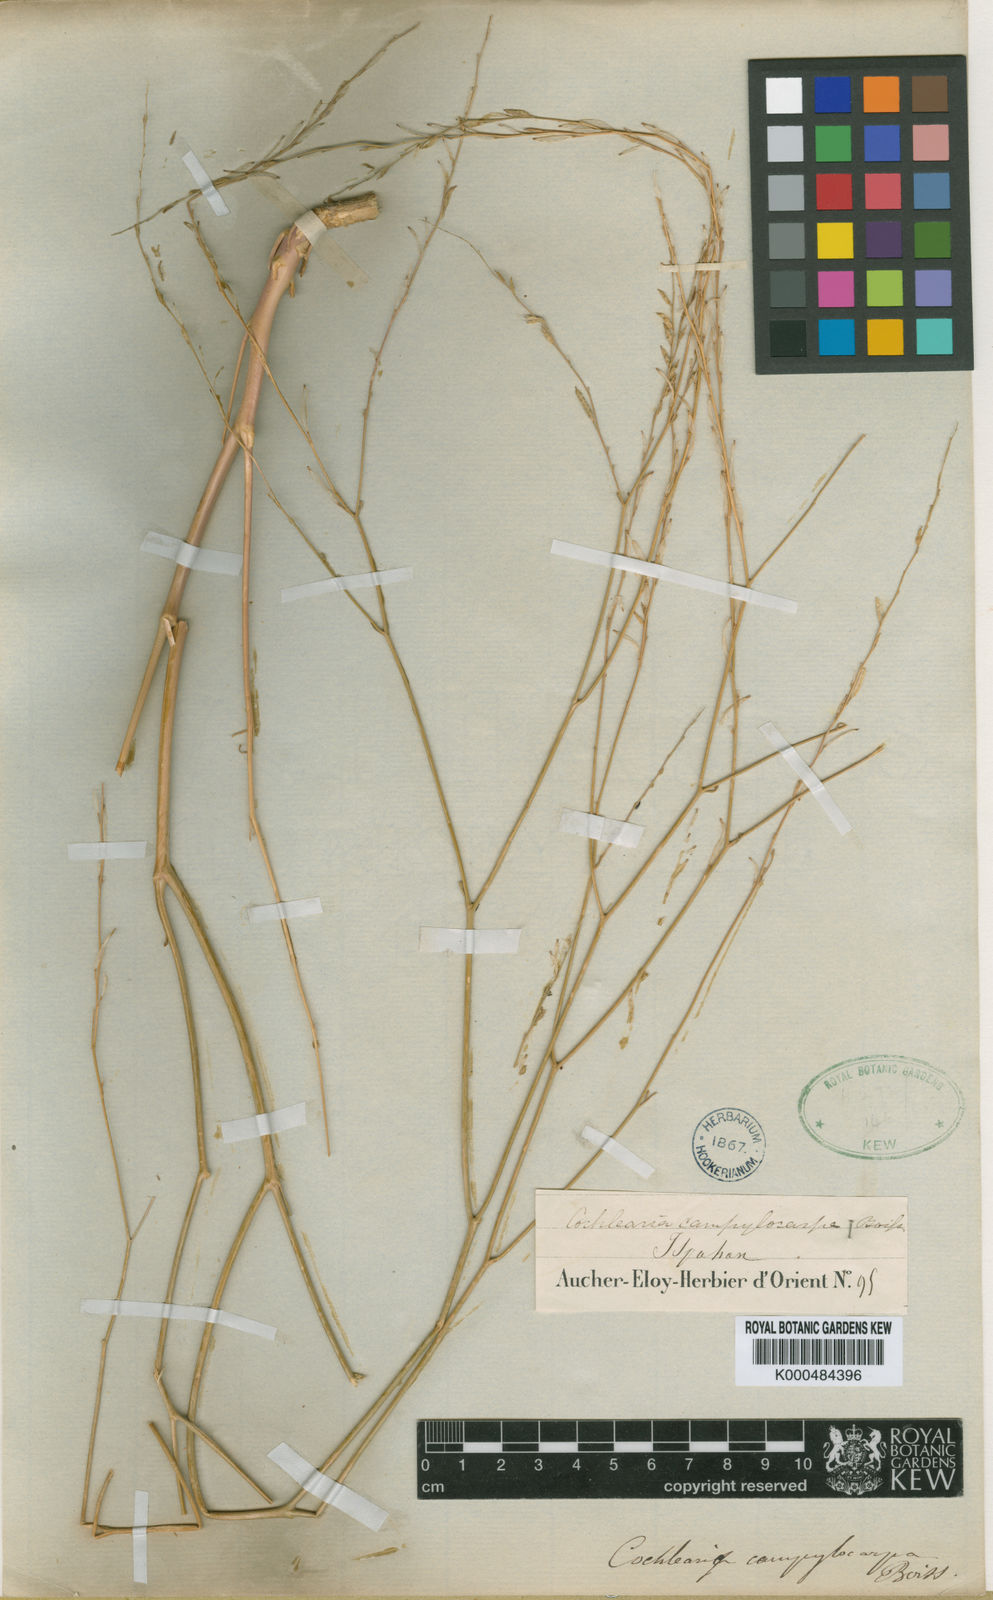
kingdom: Plantae
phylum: Tracheophyta
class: Magnoliopsida
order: Brassicales
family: Brassicaceae
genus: Pseudocamelina
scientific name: Pseudocamelina campylocarpa
